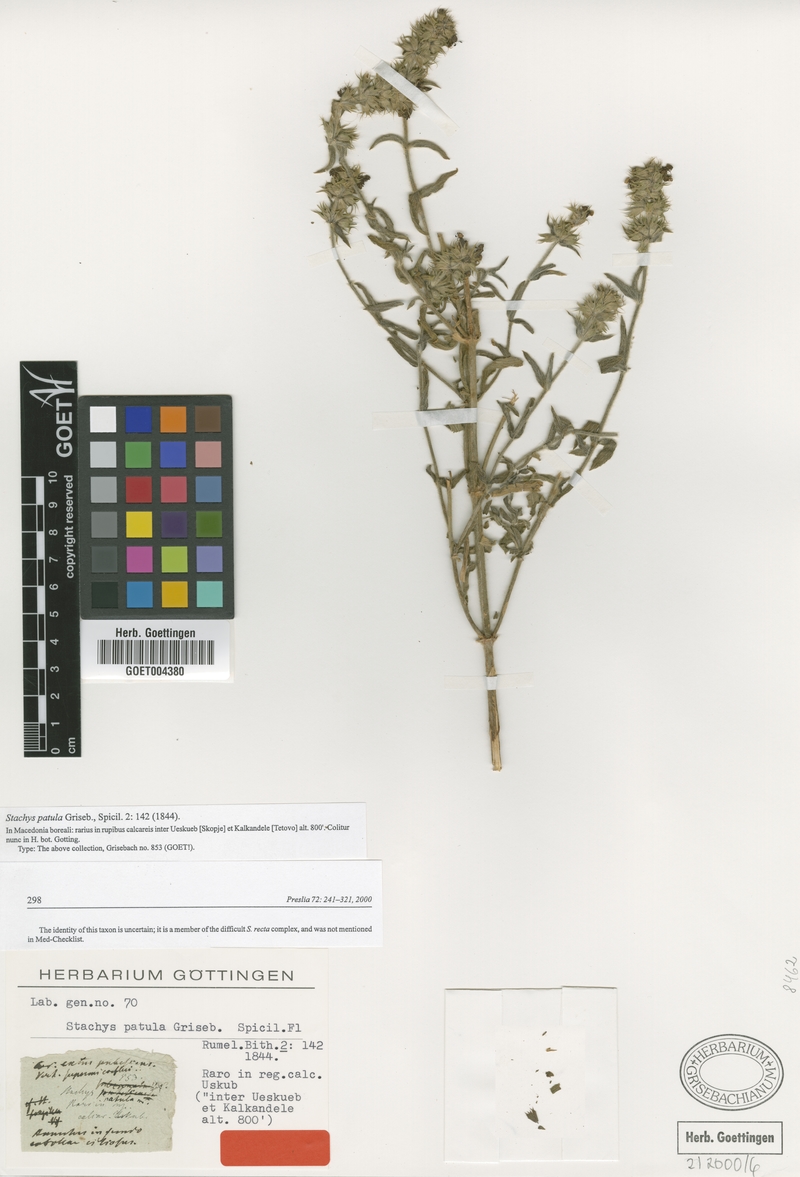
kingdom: Plantae
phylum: Tracheophyta
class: Magnoliopsida
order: Lamiales
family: Lamiaceae
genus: Stachys
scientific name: Stachys recta
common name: Perennial yellow-woundwort
